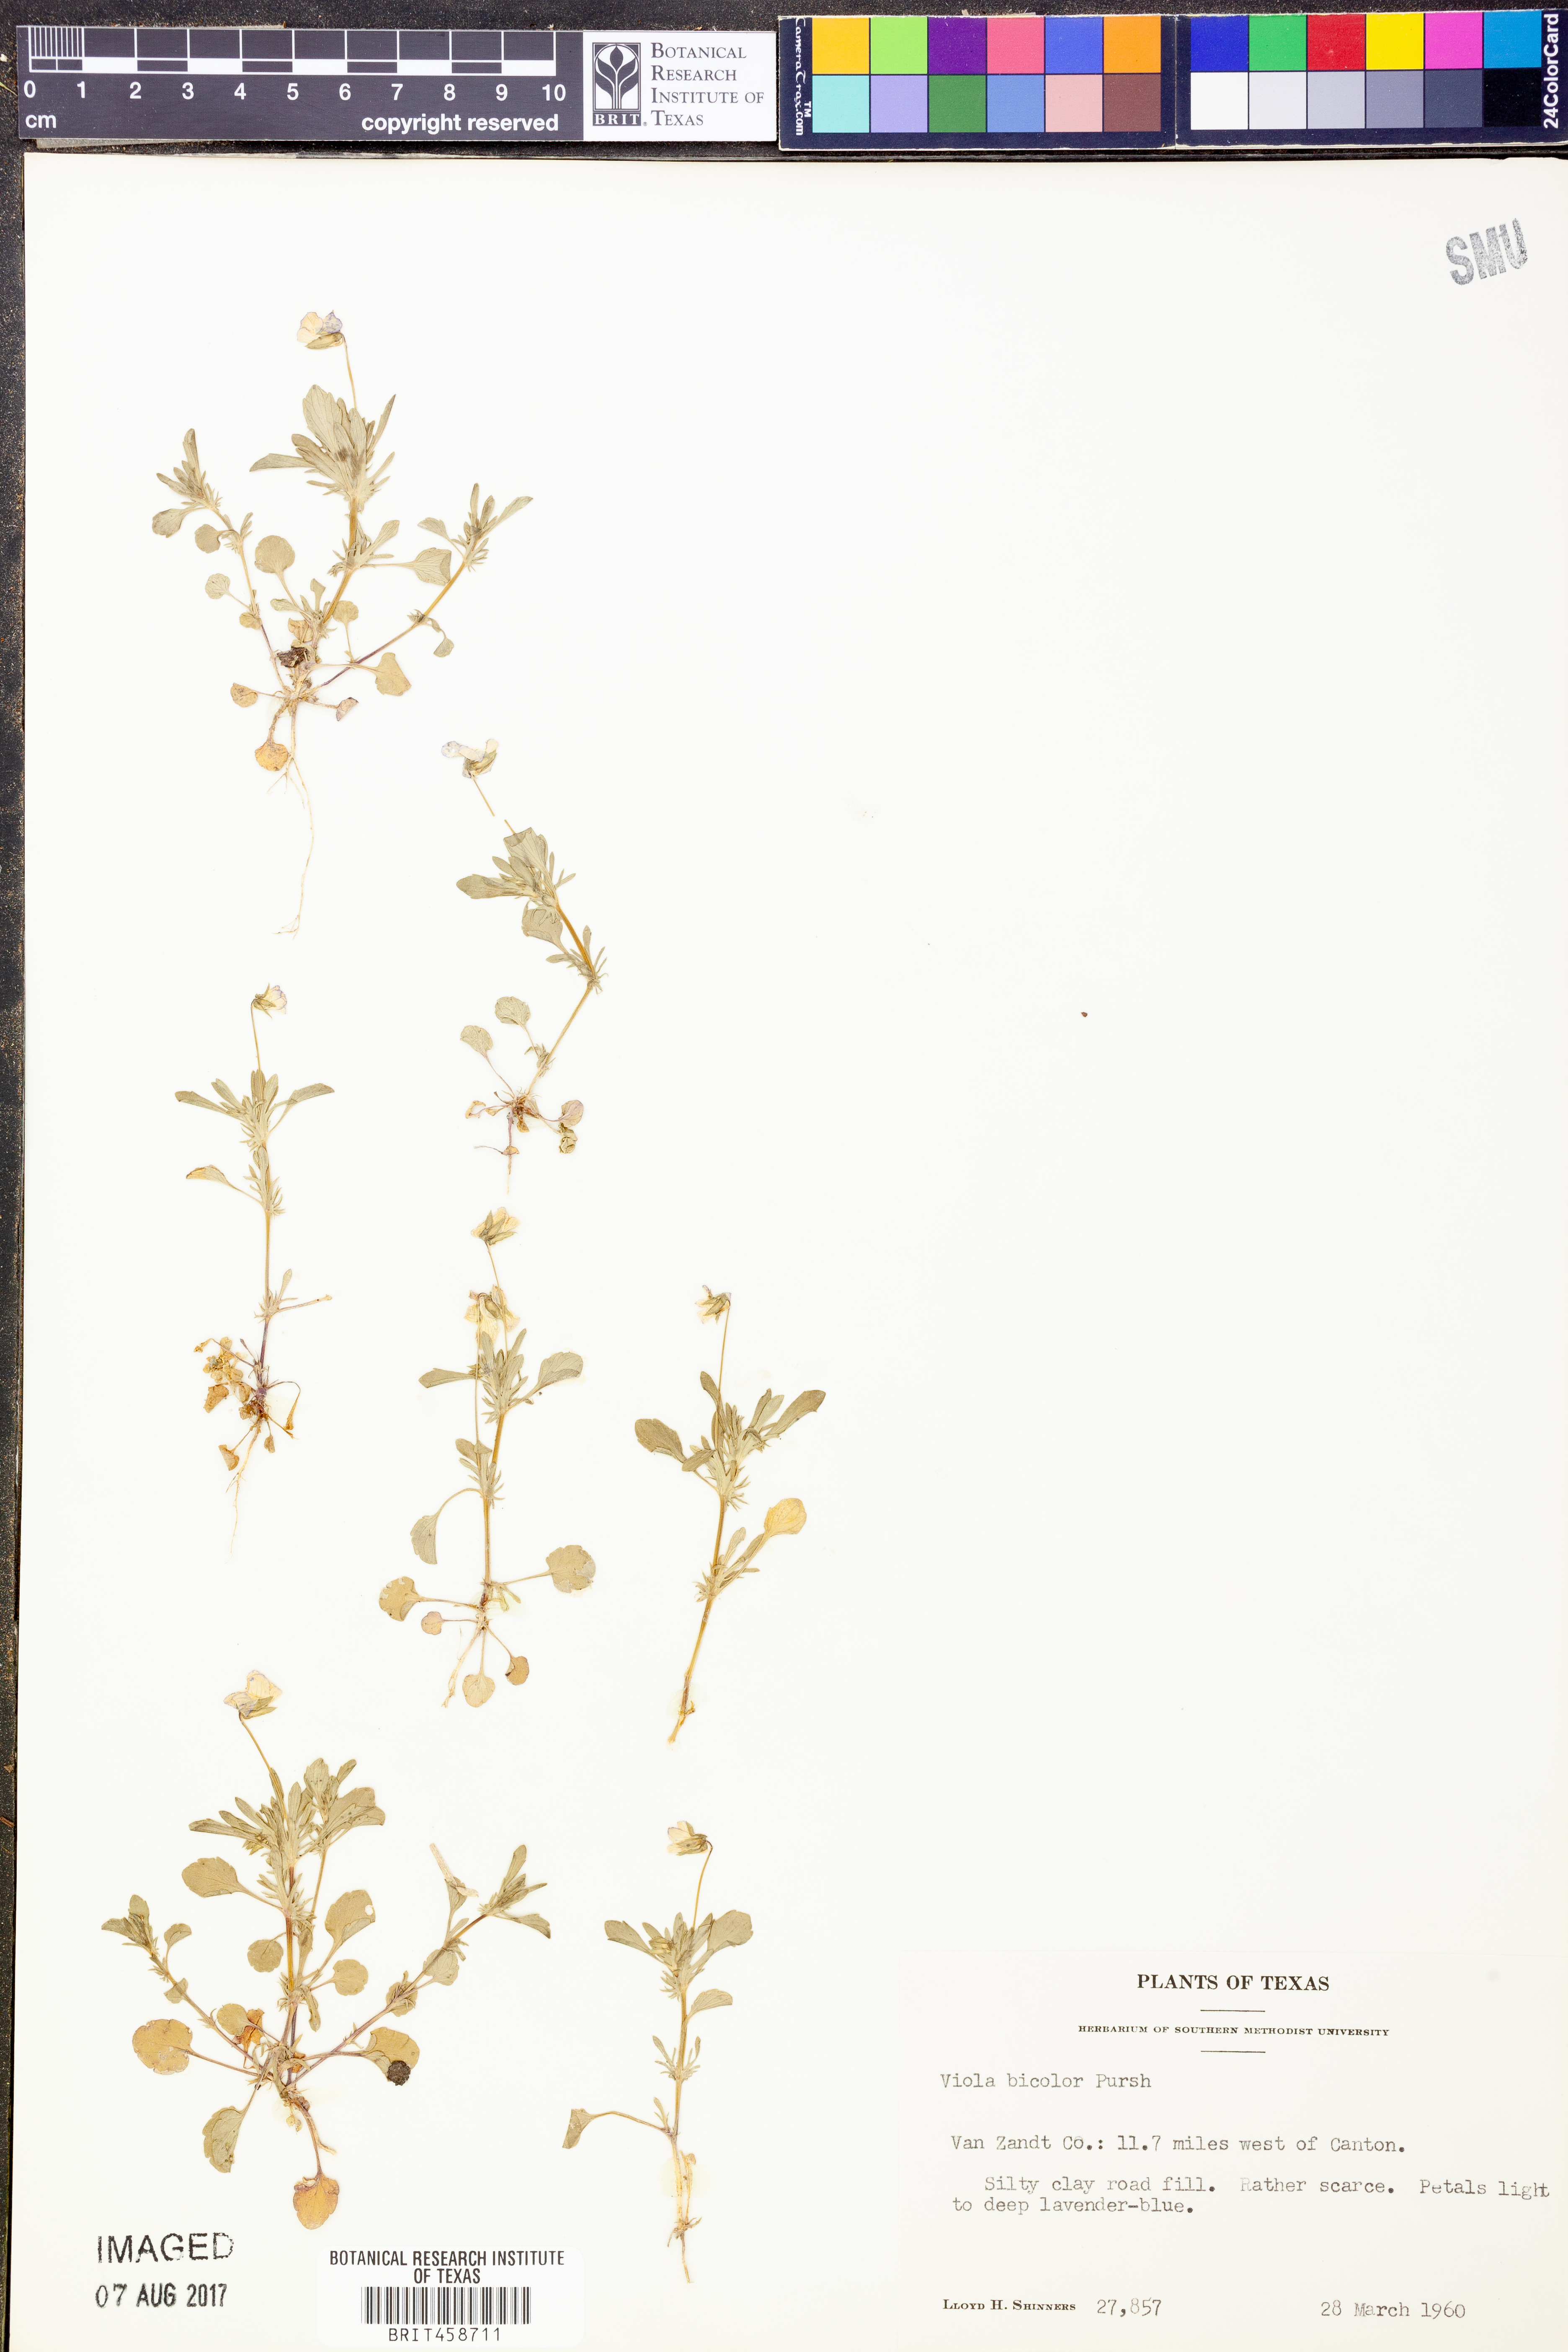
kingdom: Plantae
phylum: Tracheophyta
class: Magnoliopsida
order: Malpighiales
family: Violaceae
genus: Viola
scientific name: Viola rafinesquei
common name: American field pansy
